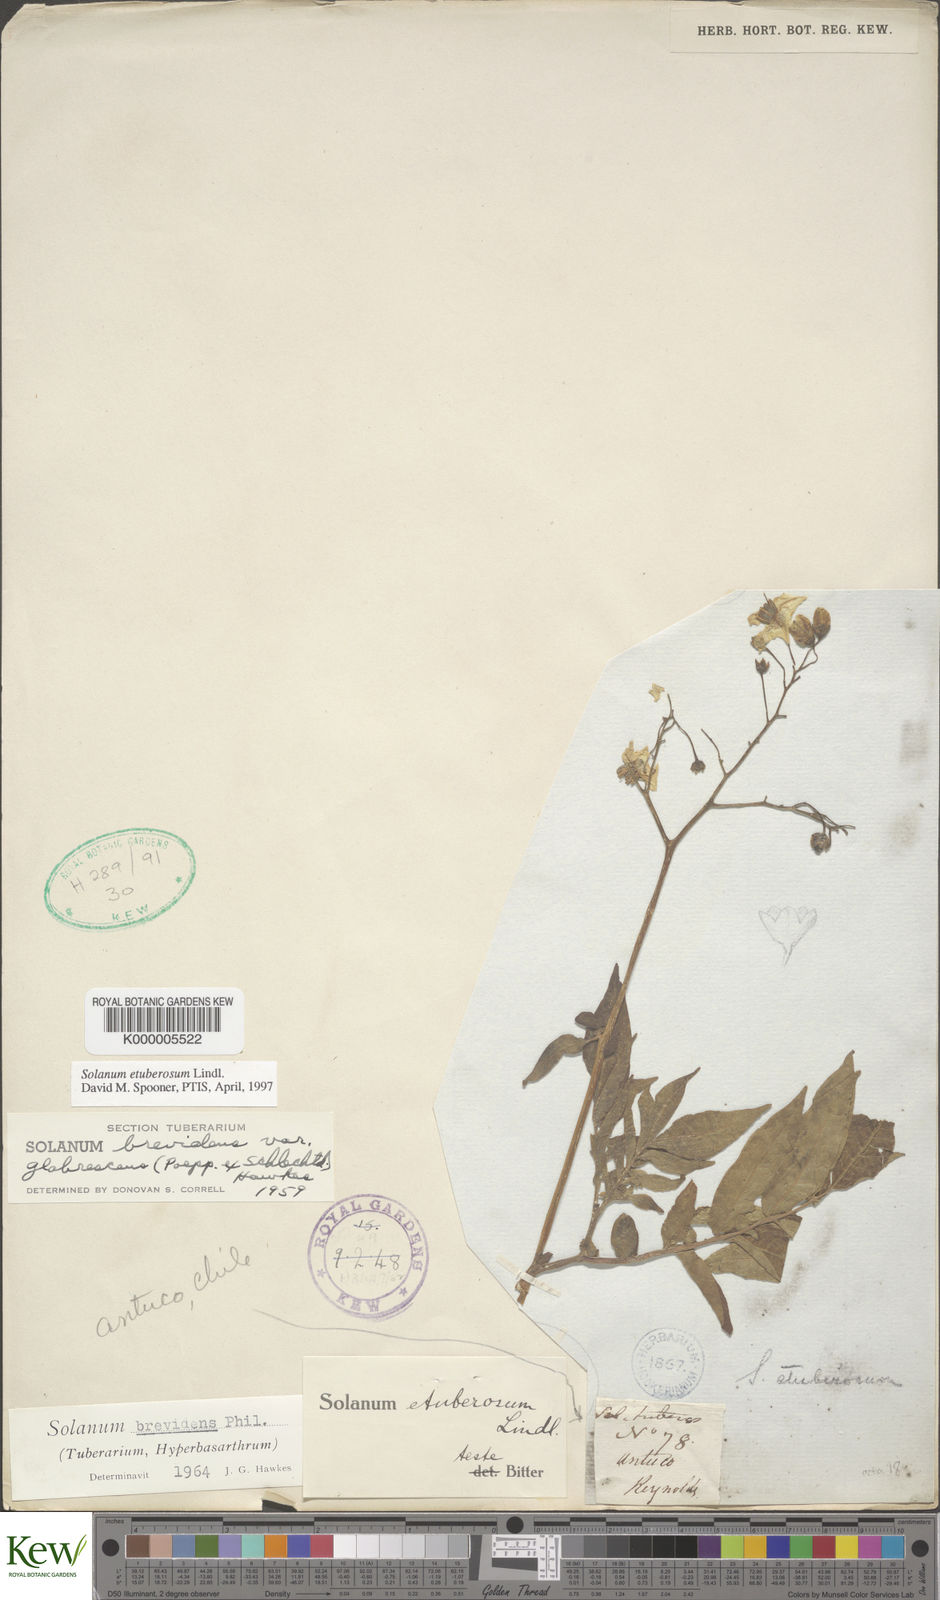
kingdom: Plantae
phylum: Tracheophyta
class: Magnoliopsida
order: Solanales
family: Solanaceae
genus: Solanum
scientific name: Solanum etuberosum
